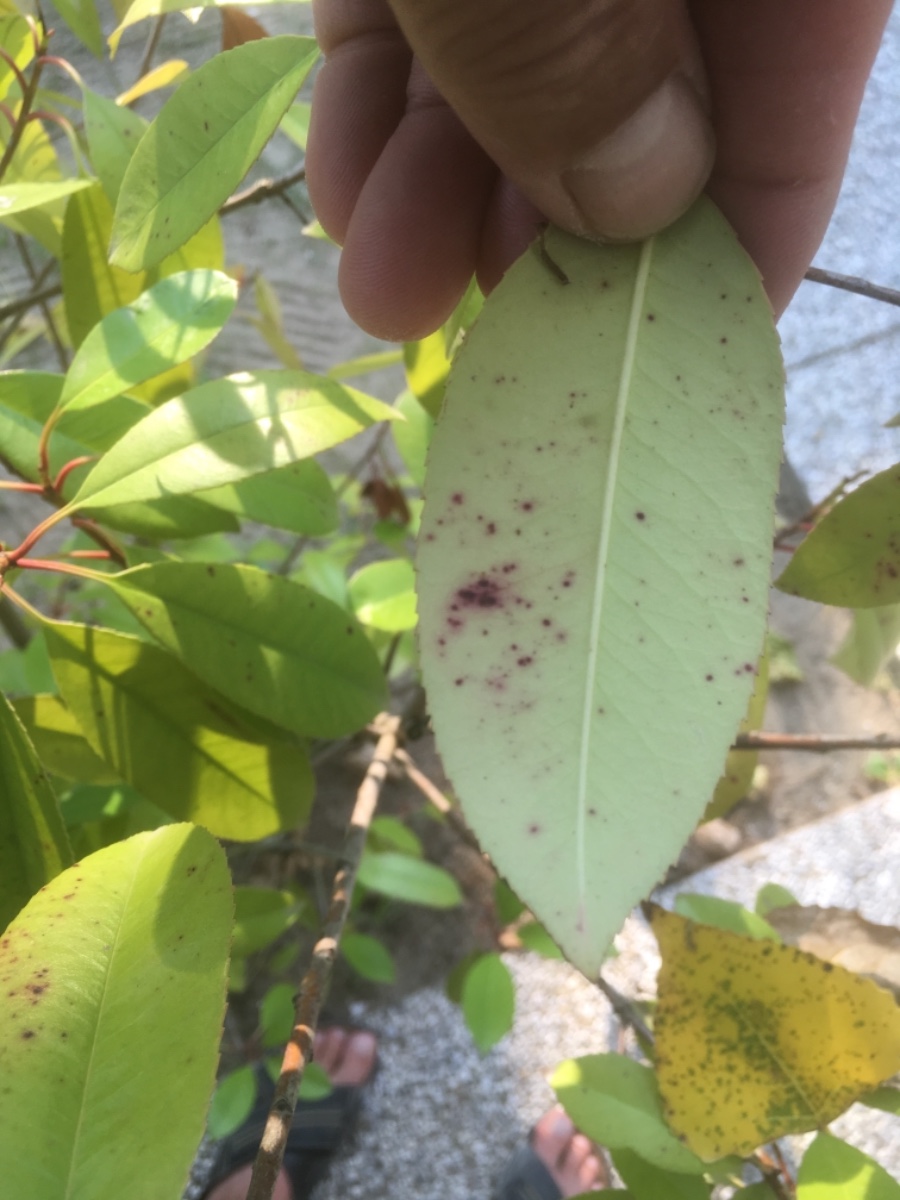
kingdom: Fungi
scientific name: Fungi
